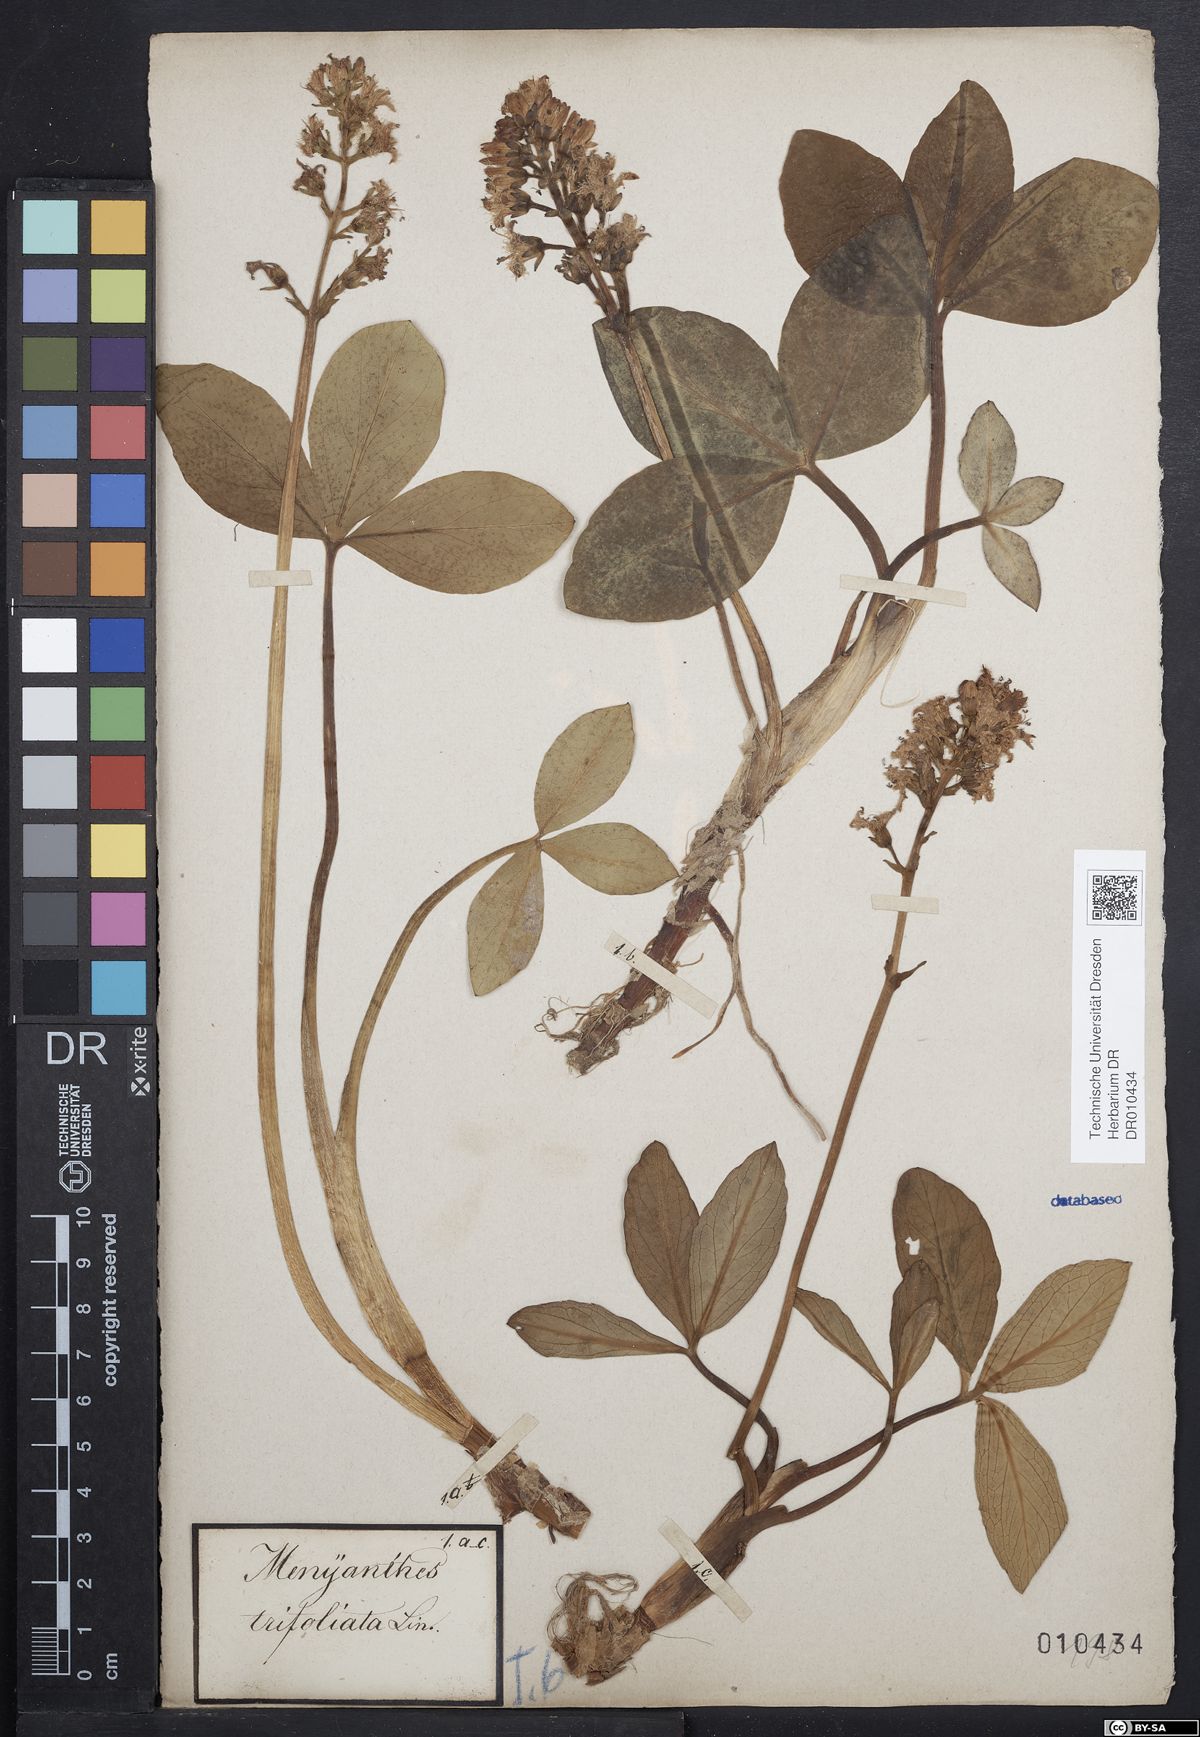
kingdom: Plantae
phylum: Tracheophyta
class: Magnoliopsida
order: Asterales
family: Menyanthaceae
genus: Menyanthes
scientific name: Menyanthes trifoliata
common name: Bogbean
